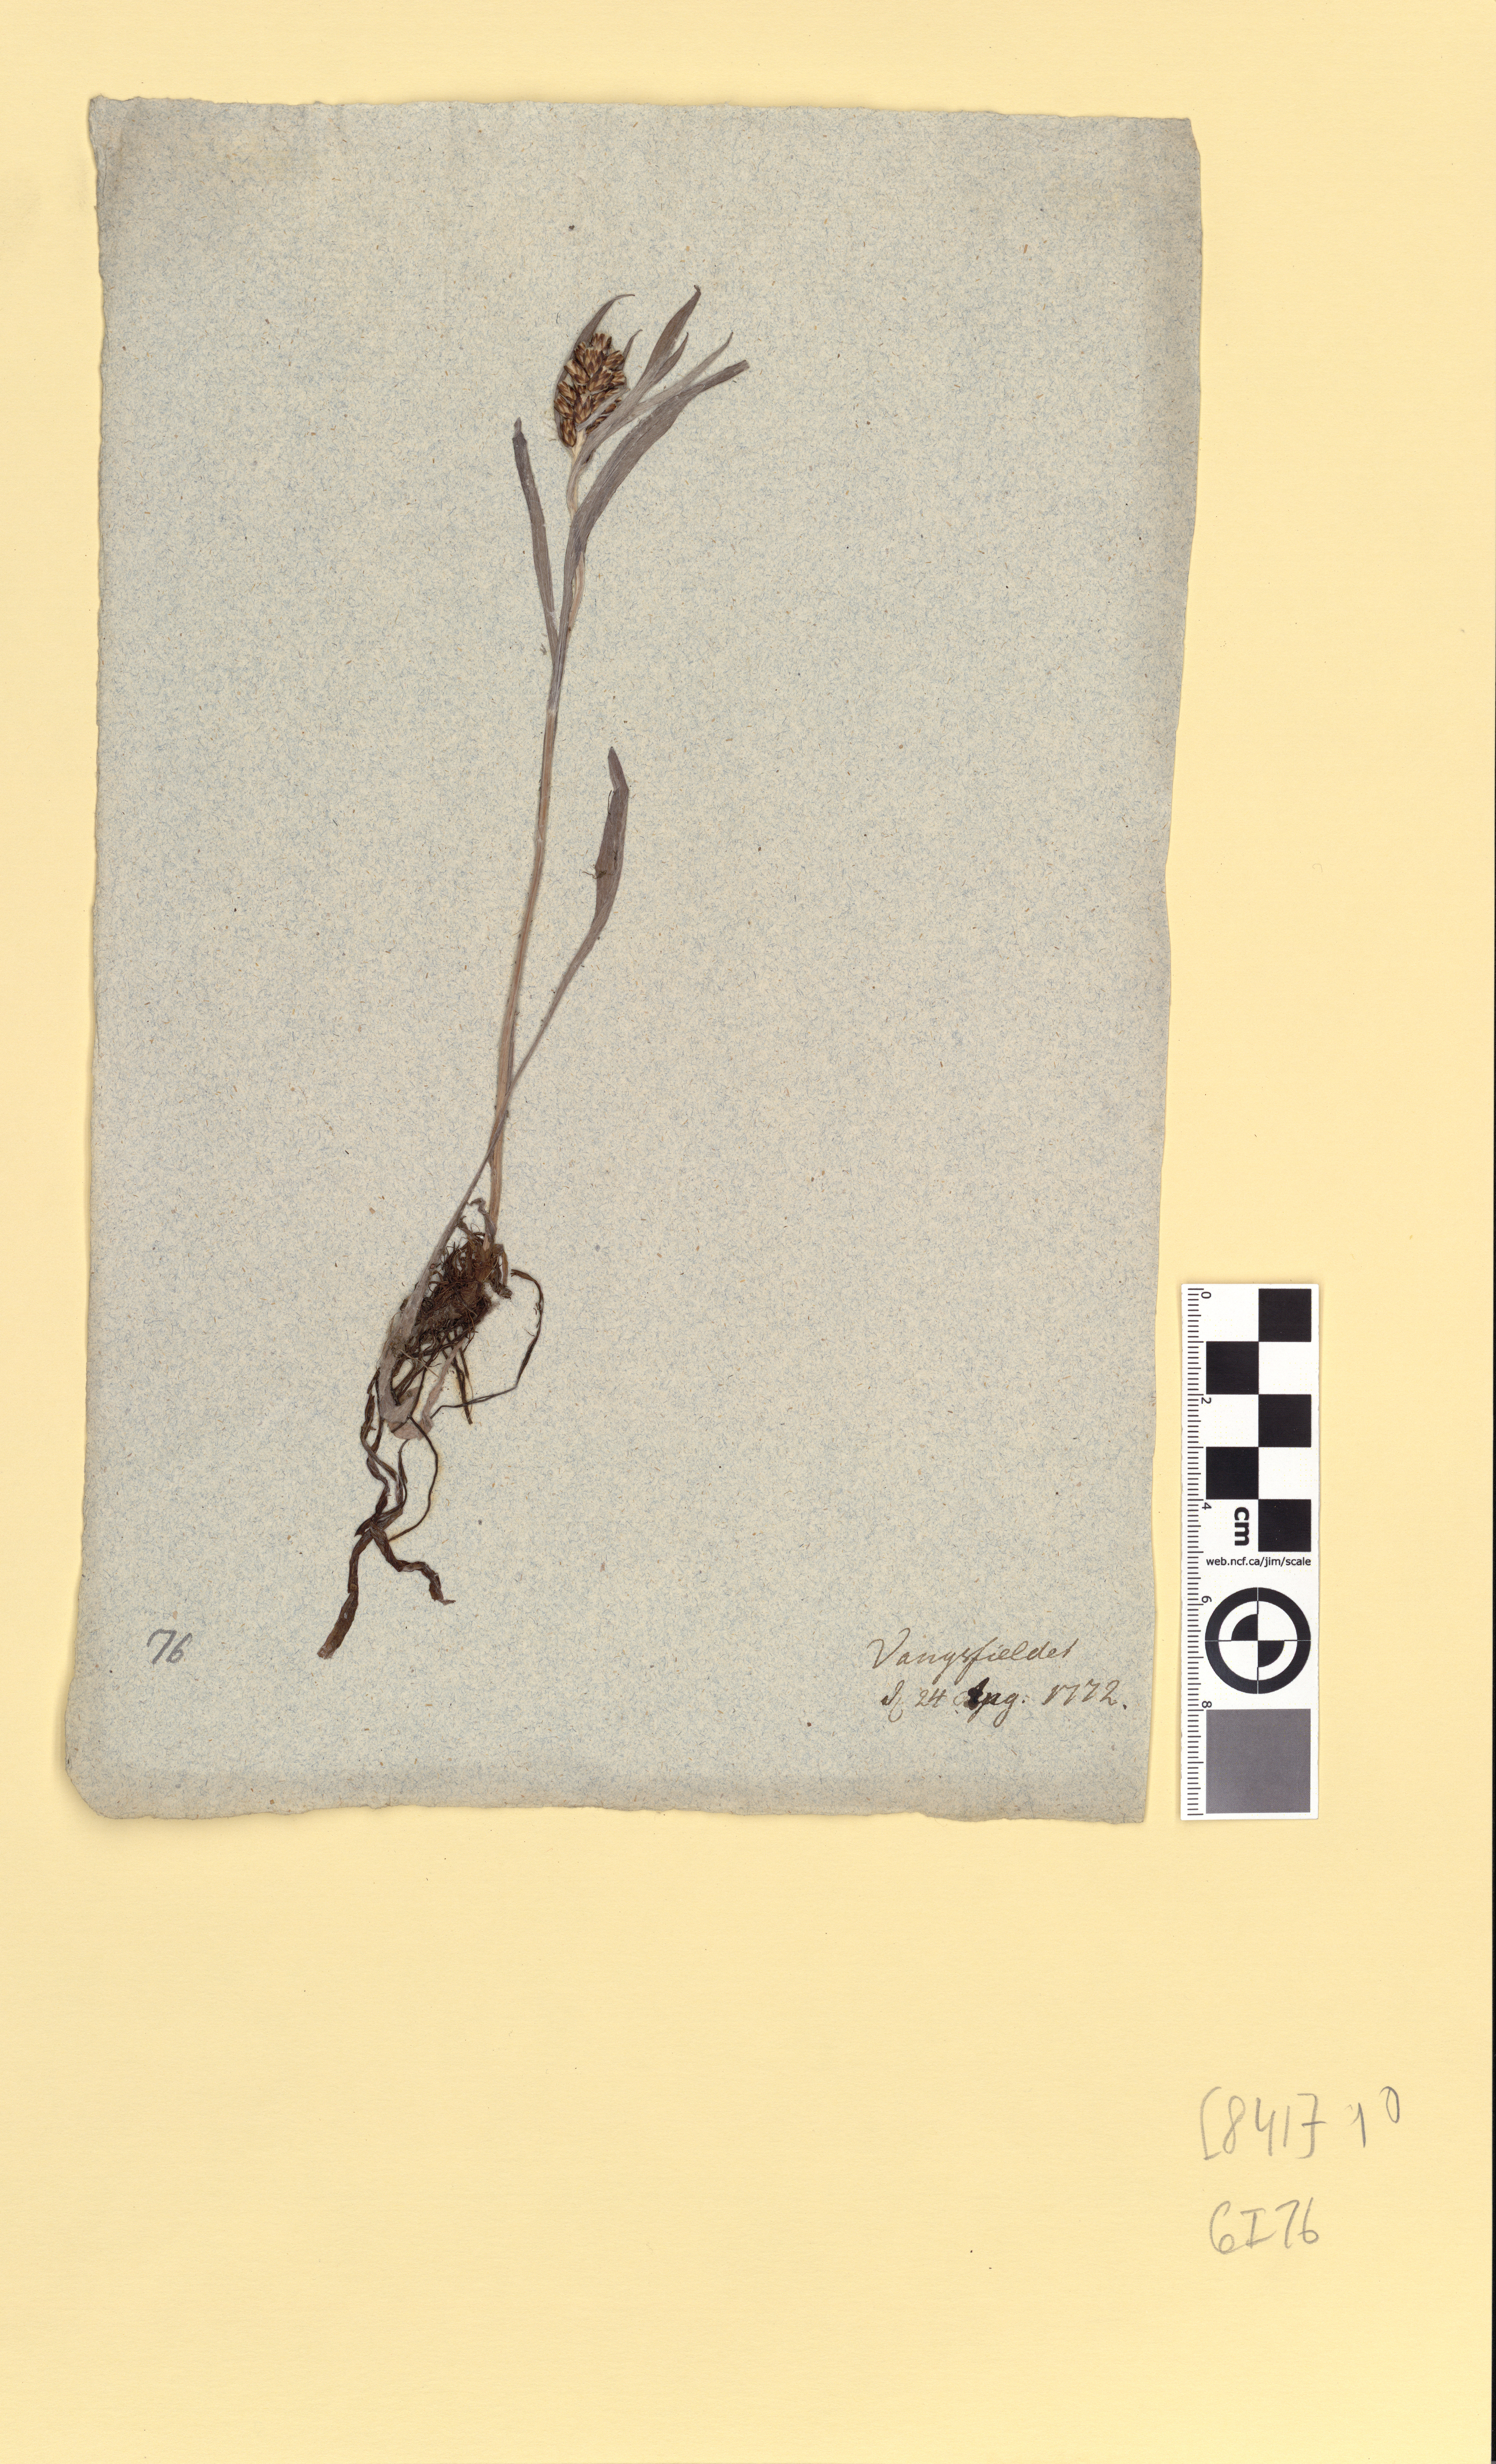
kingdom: Plantae
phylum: Tracheophyta
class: Magnoliopsida
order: Asterales
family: Asteraceae
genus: Omalotheca
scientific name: Omalotheca norvegica
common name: Norwegian arctic-cudweed
